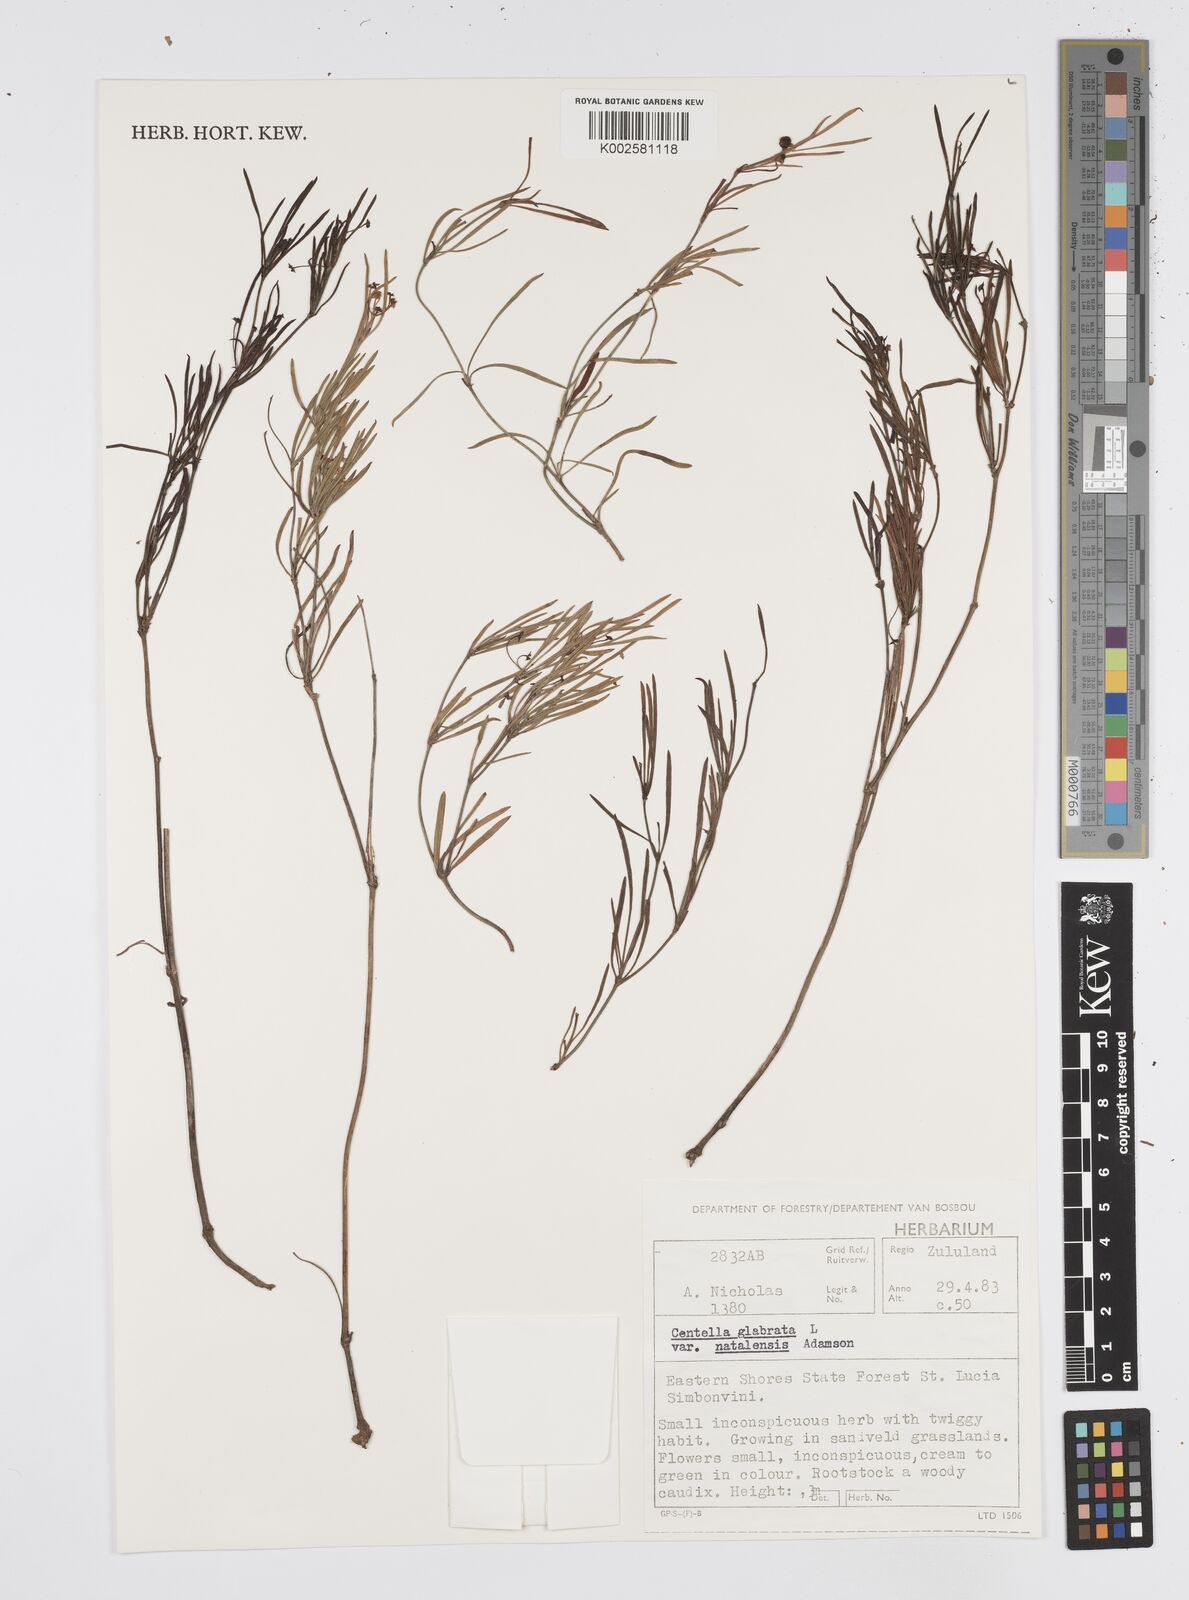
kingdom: Plantae
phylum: Tracheophyta
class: Magnoliopsida
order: Apiales
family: Apiaceae
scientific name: Apiaceae
